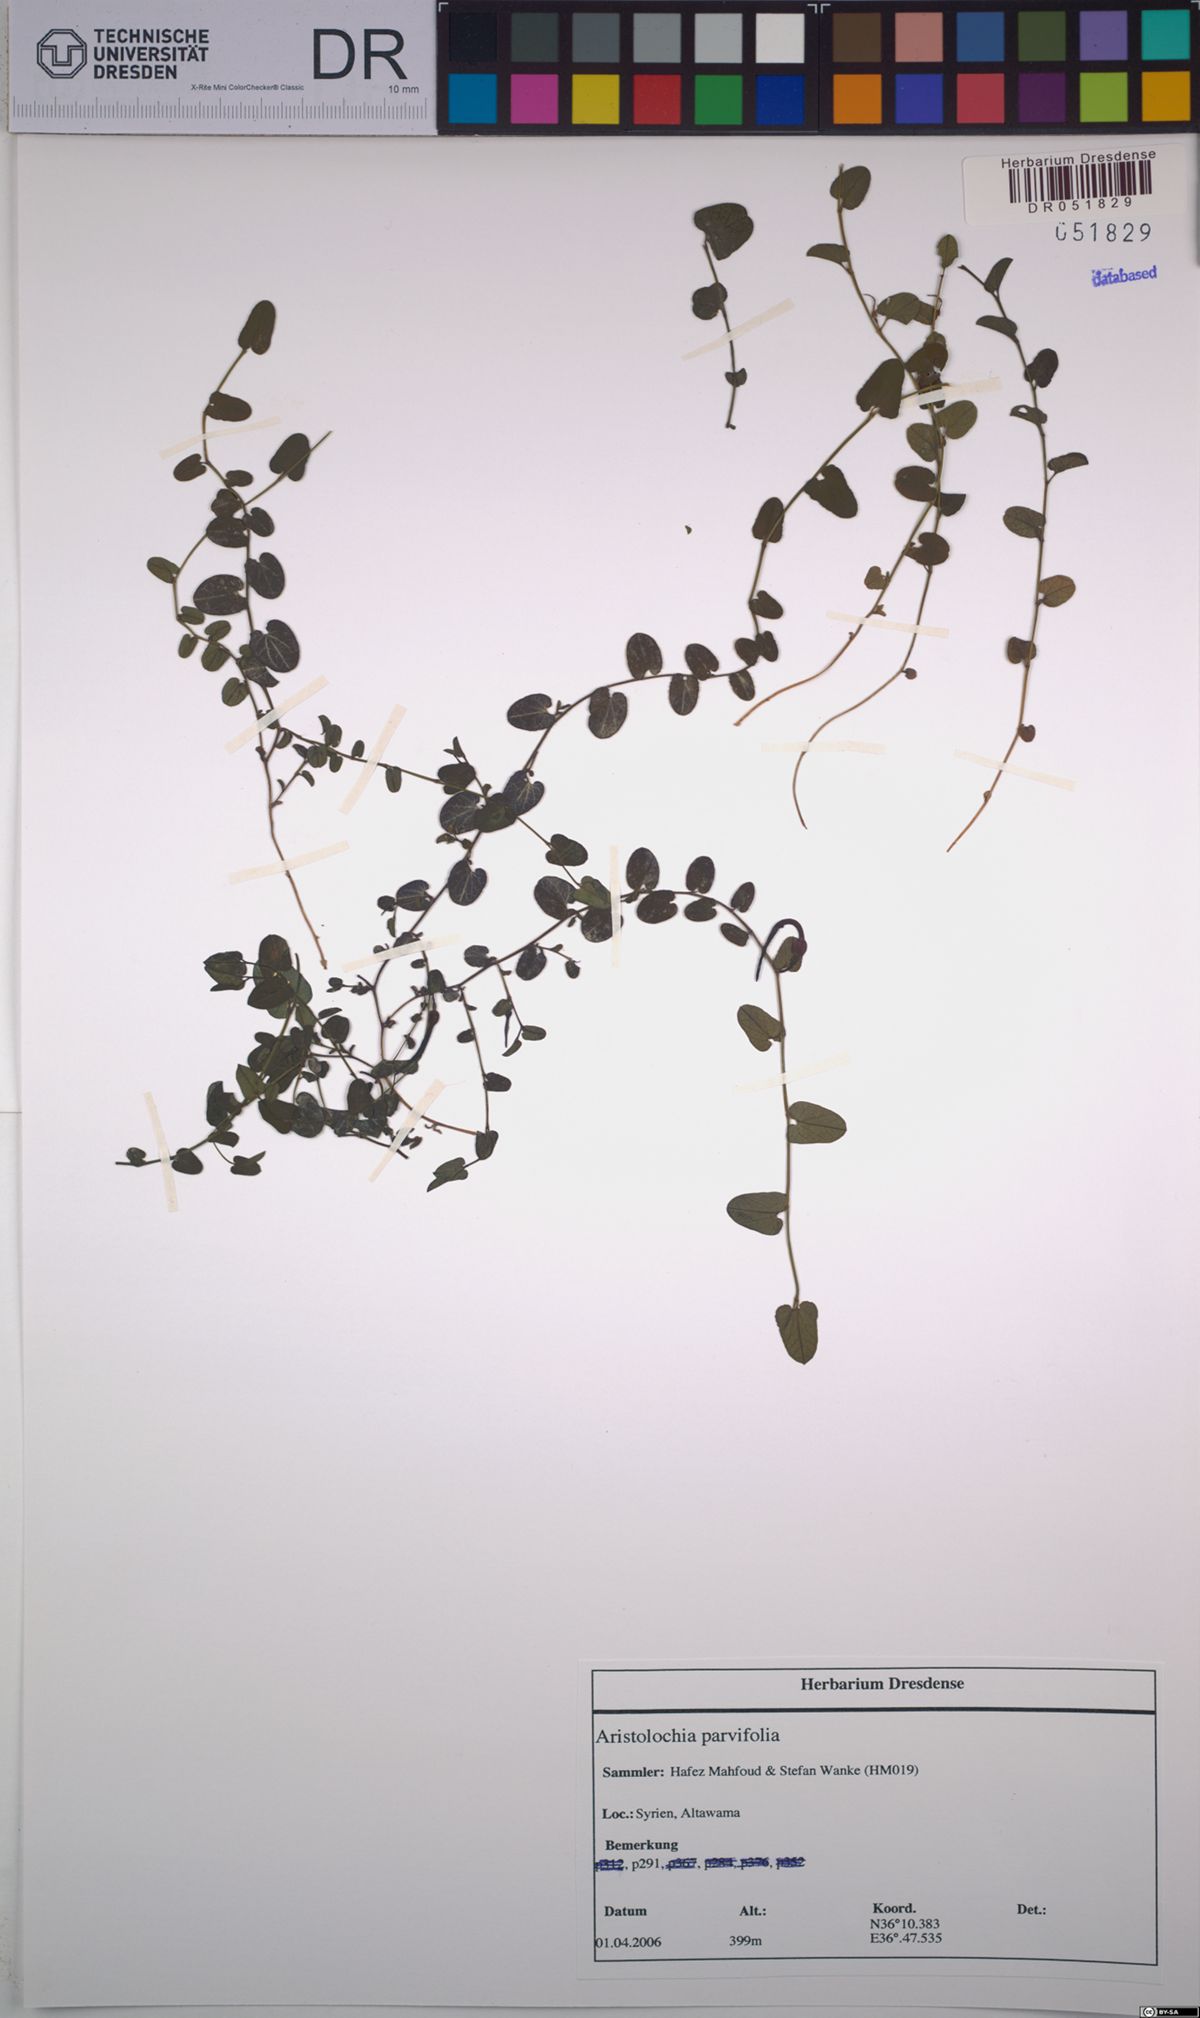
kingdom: Plantae
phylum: Tracheophyta
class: Magnoliopsida
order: Piperales
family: Aristolochiaceae
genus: Aristolochia
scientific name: Aristolochia parvifolia
